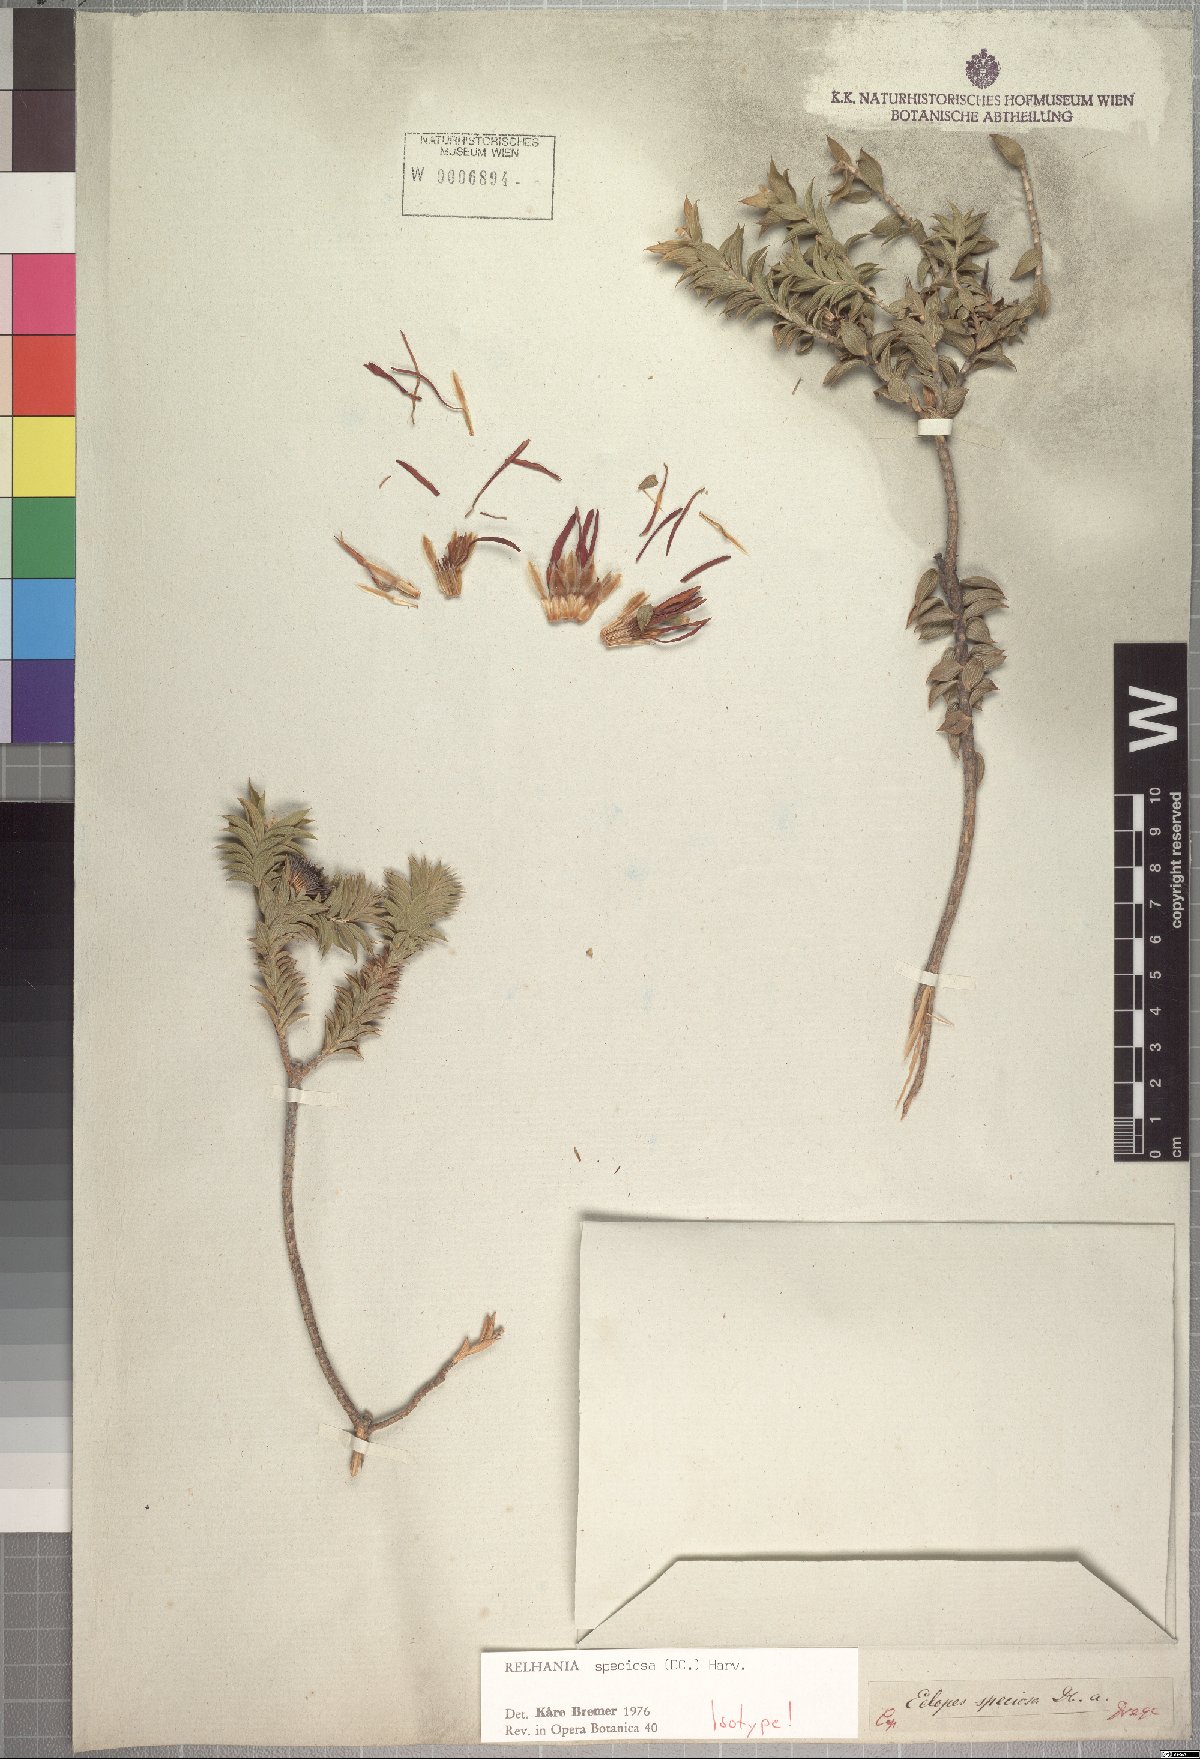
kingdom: Plantae
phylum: Tracheophyta
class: Magnoliopsida
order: Asterales
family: Asteraceae
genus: Oedera
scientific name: Oedera speciosa
